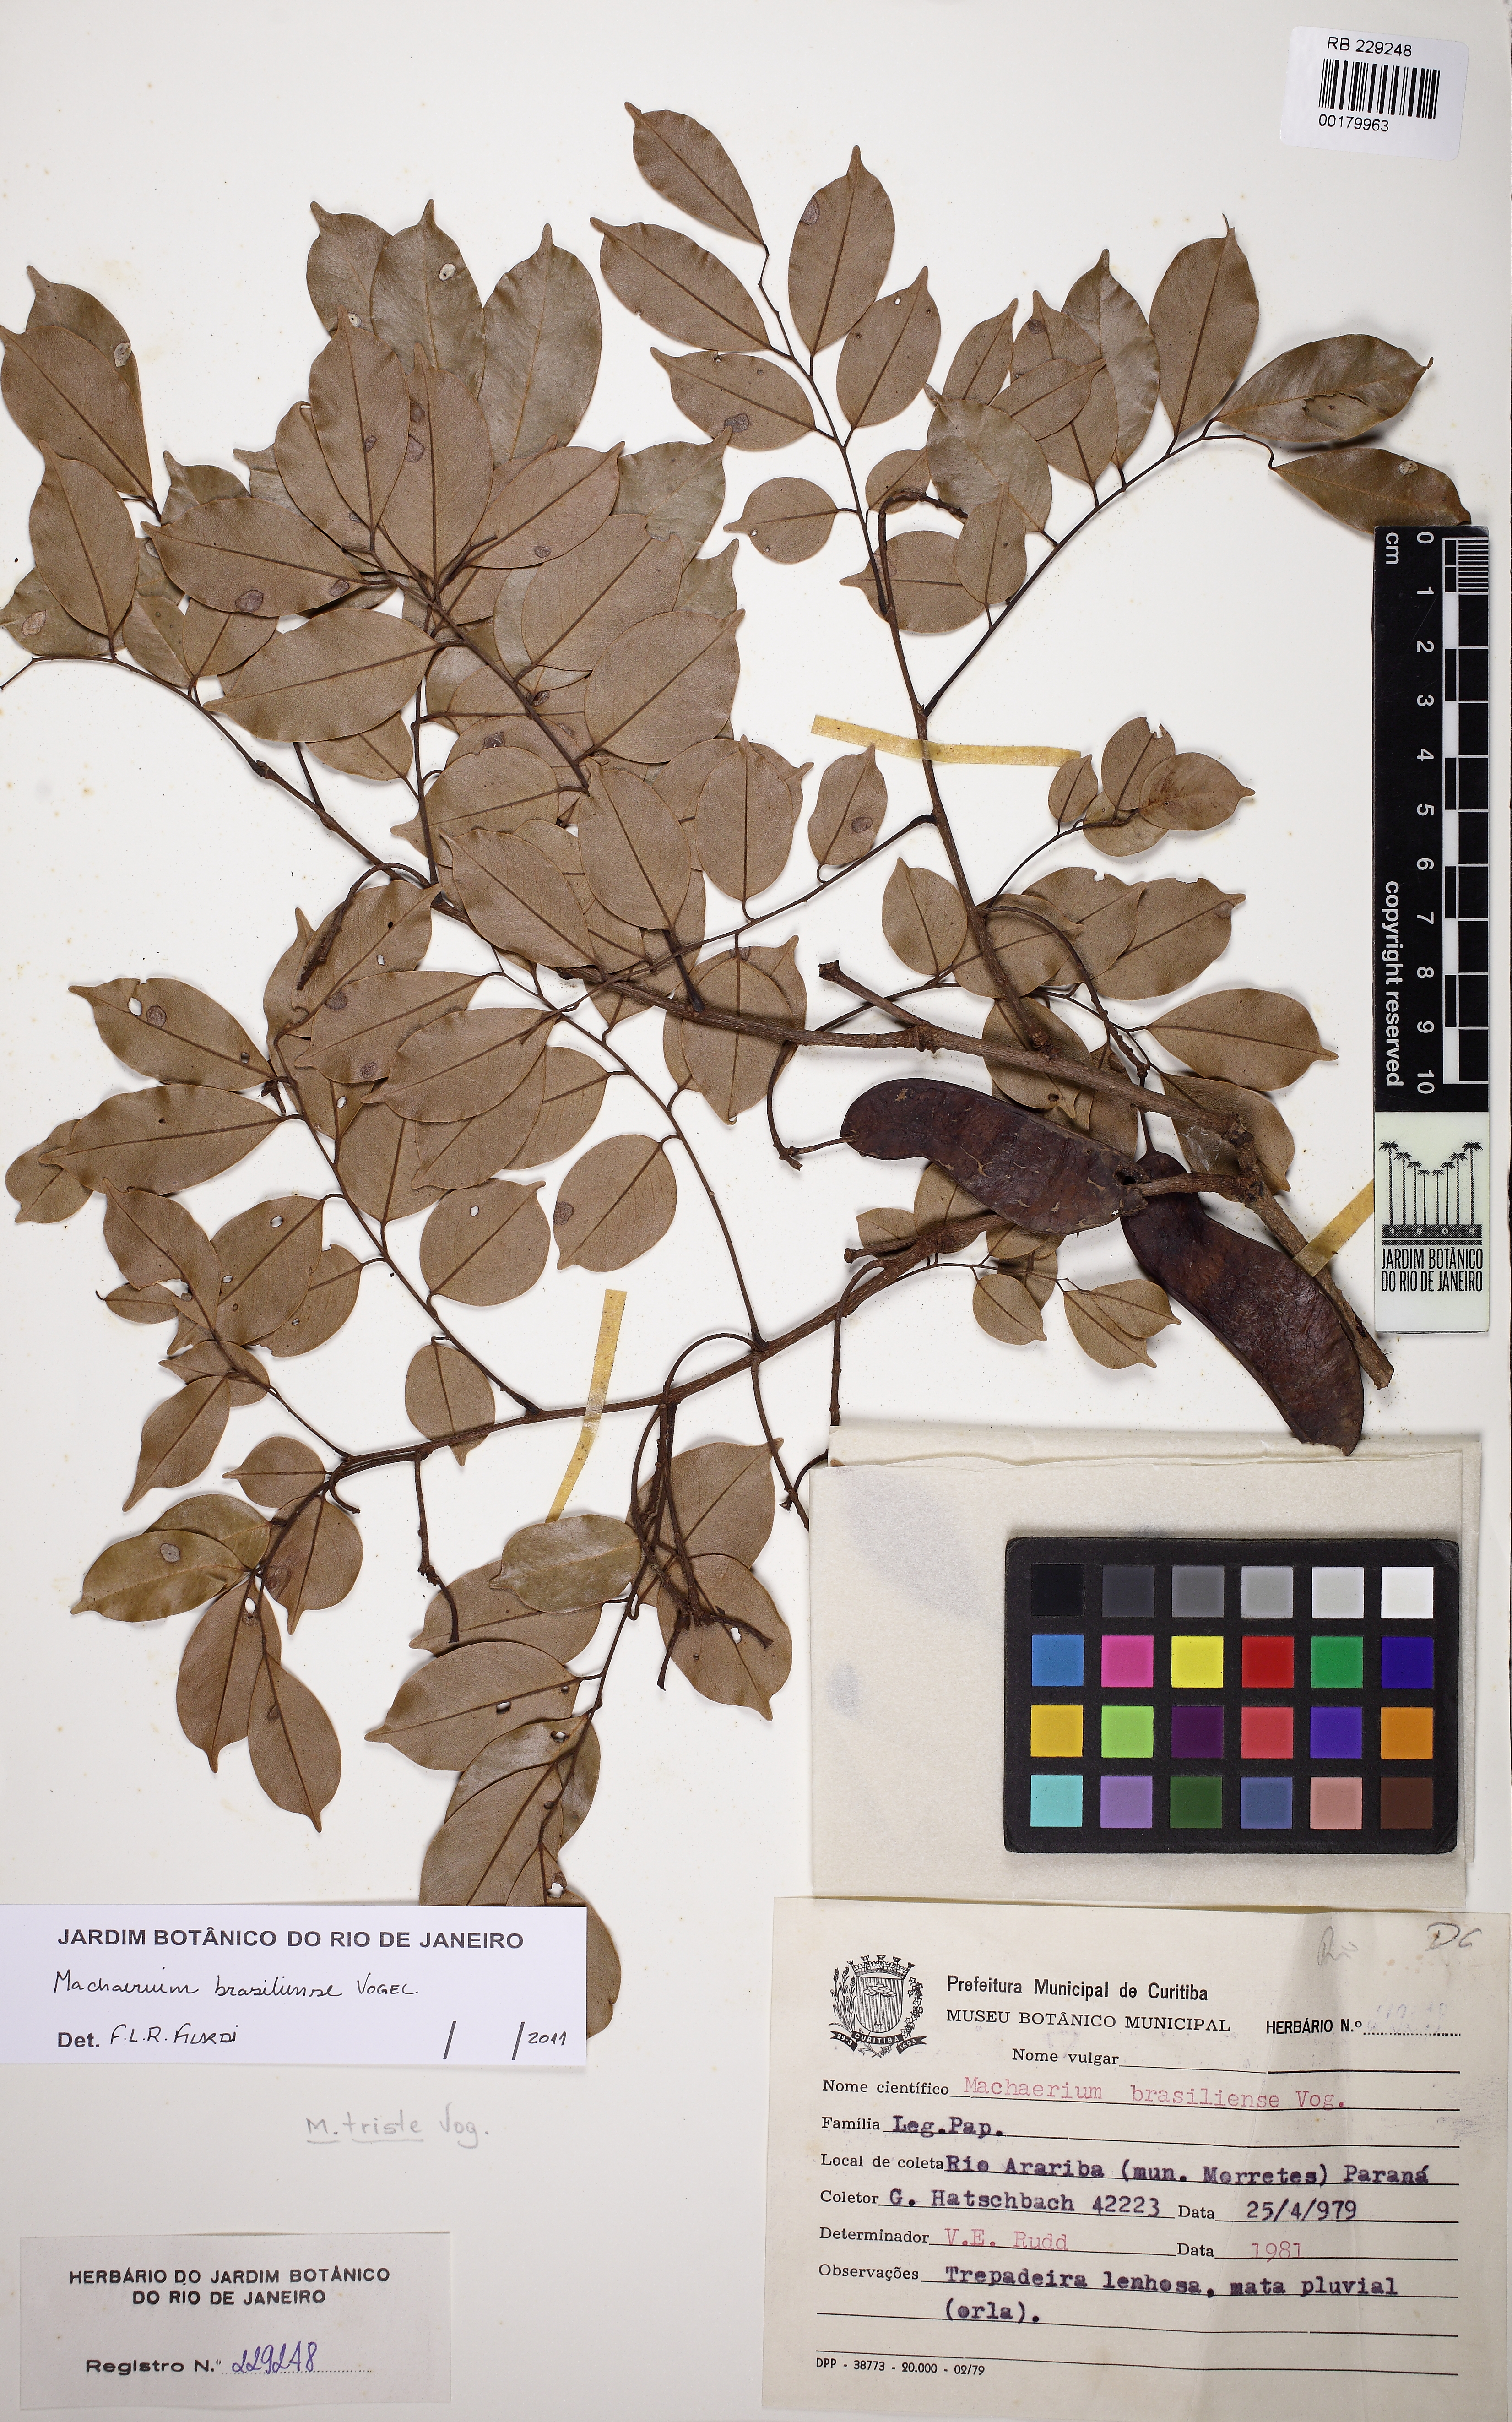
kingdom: Plantae
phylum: Tracheophyta
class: Magnoliopsida
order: Fabales
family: Fabaceae
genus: Machaerium
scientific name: Machaerium brasiliense
